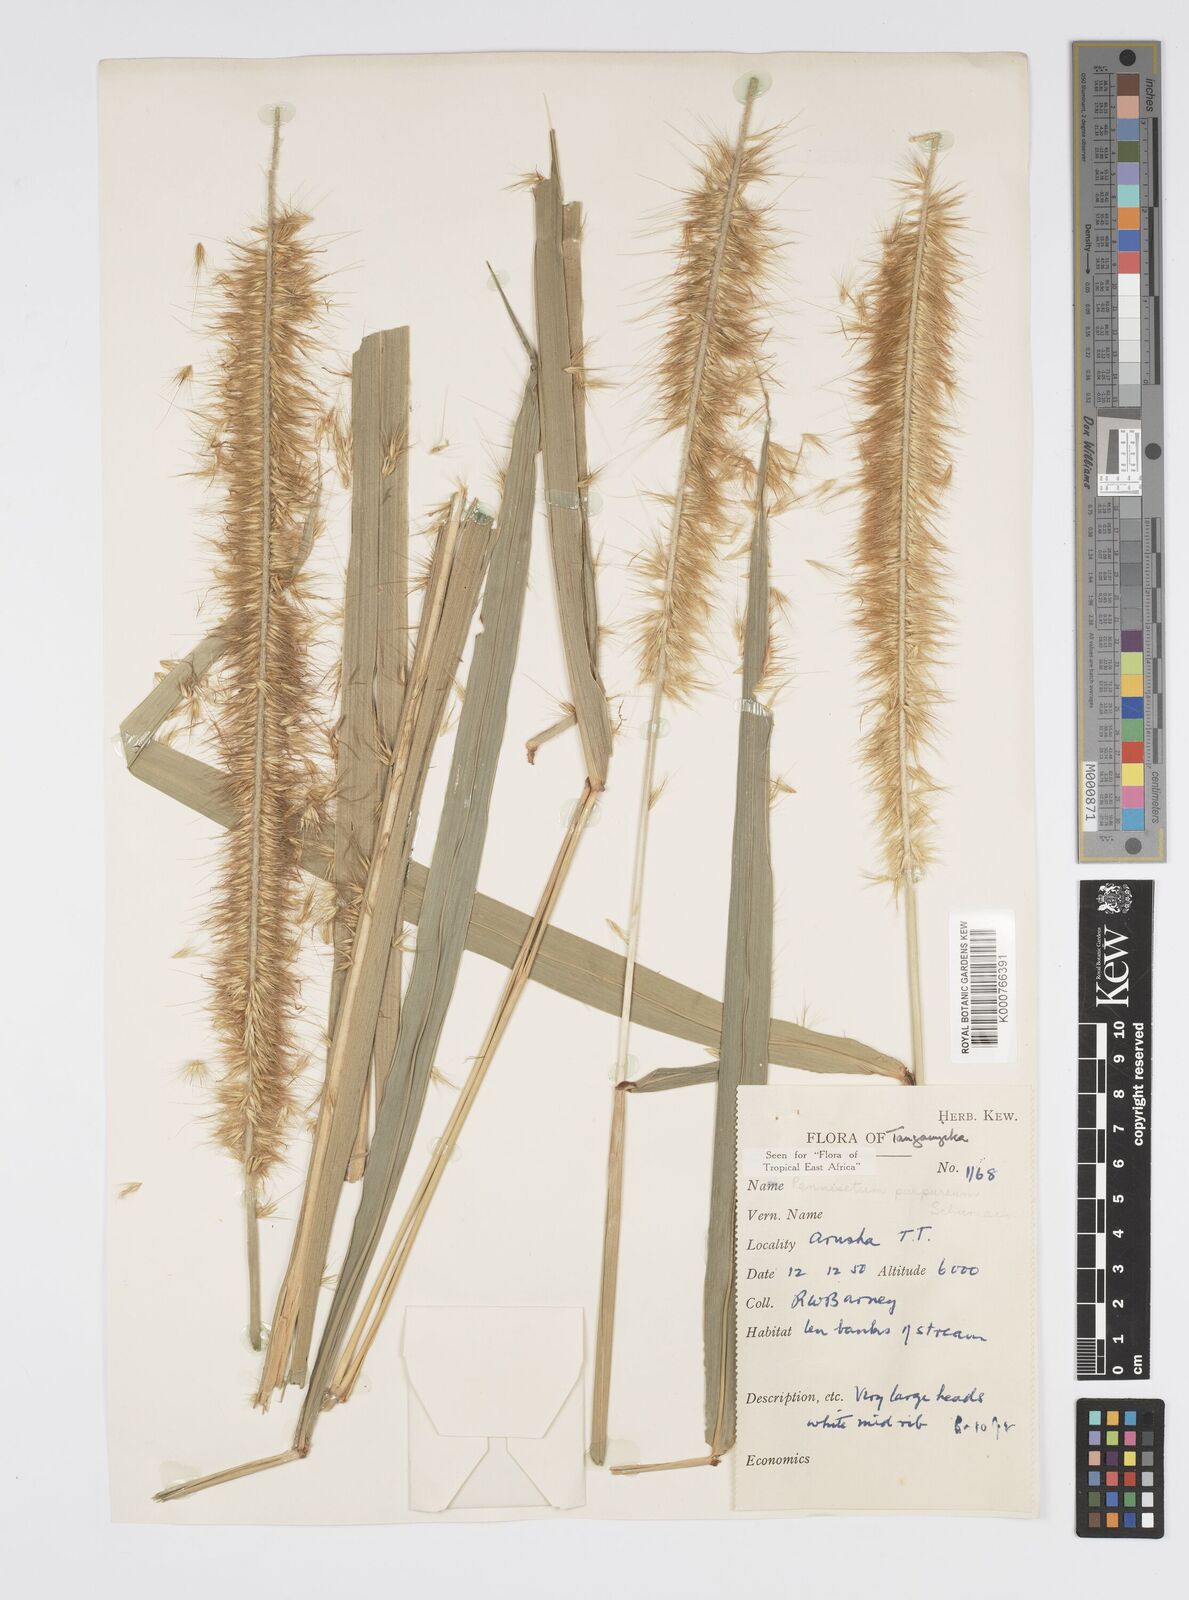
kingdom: Plantae
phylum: Tracheophyta
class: Liliopsida
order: Poales
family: Poaceae
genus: Cenchrus
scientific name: Cenchrus purpureus
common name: Elephant grass
